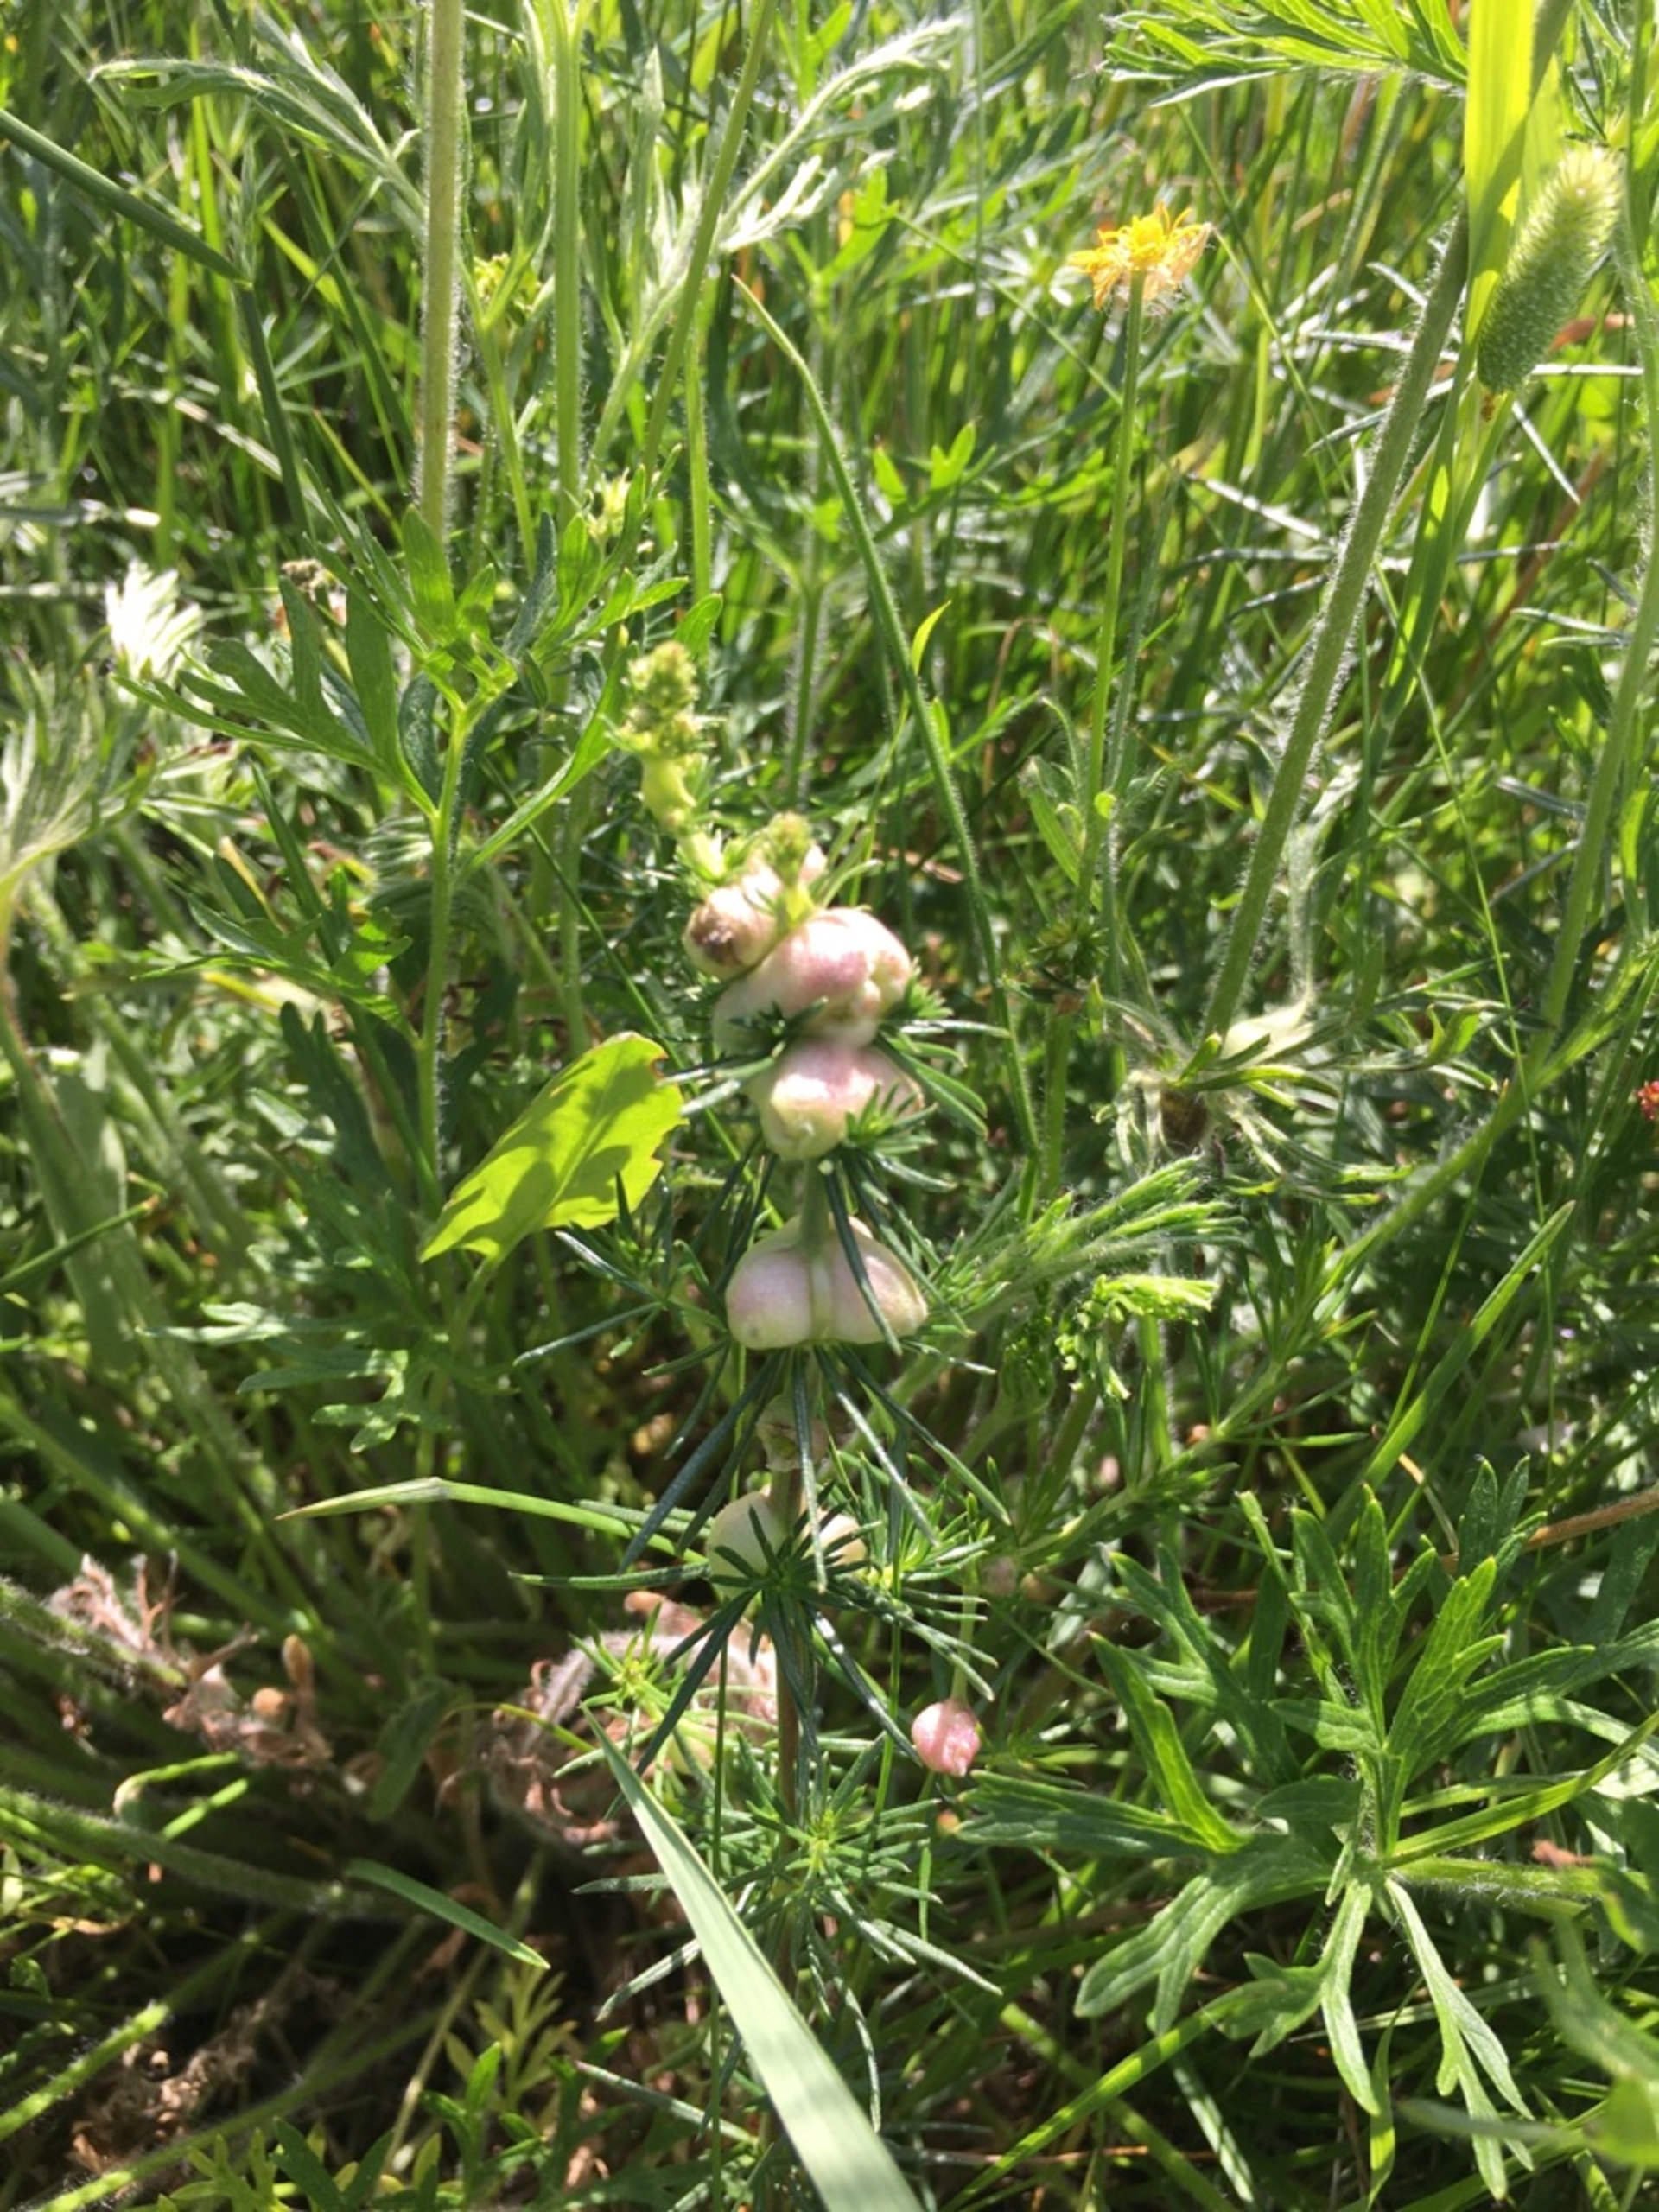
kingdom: Animalia
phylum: Arthropoda
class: Insecta
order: Diptera
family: Cecidomyiidae
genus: Geocrypta
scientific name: Geocrypta galii
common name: Snerrestængelgalmyg
